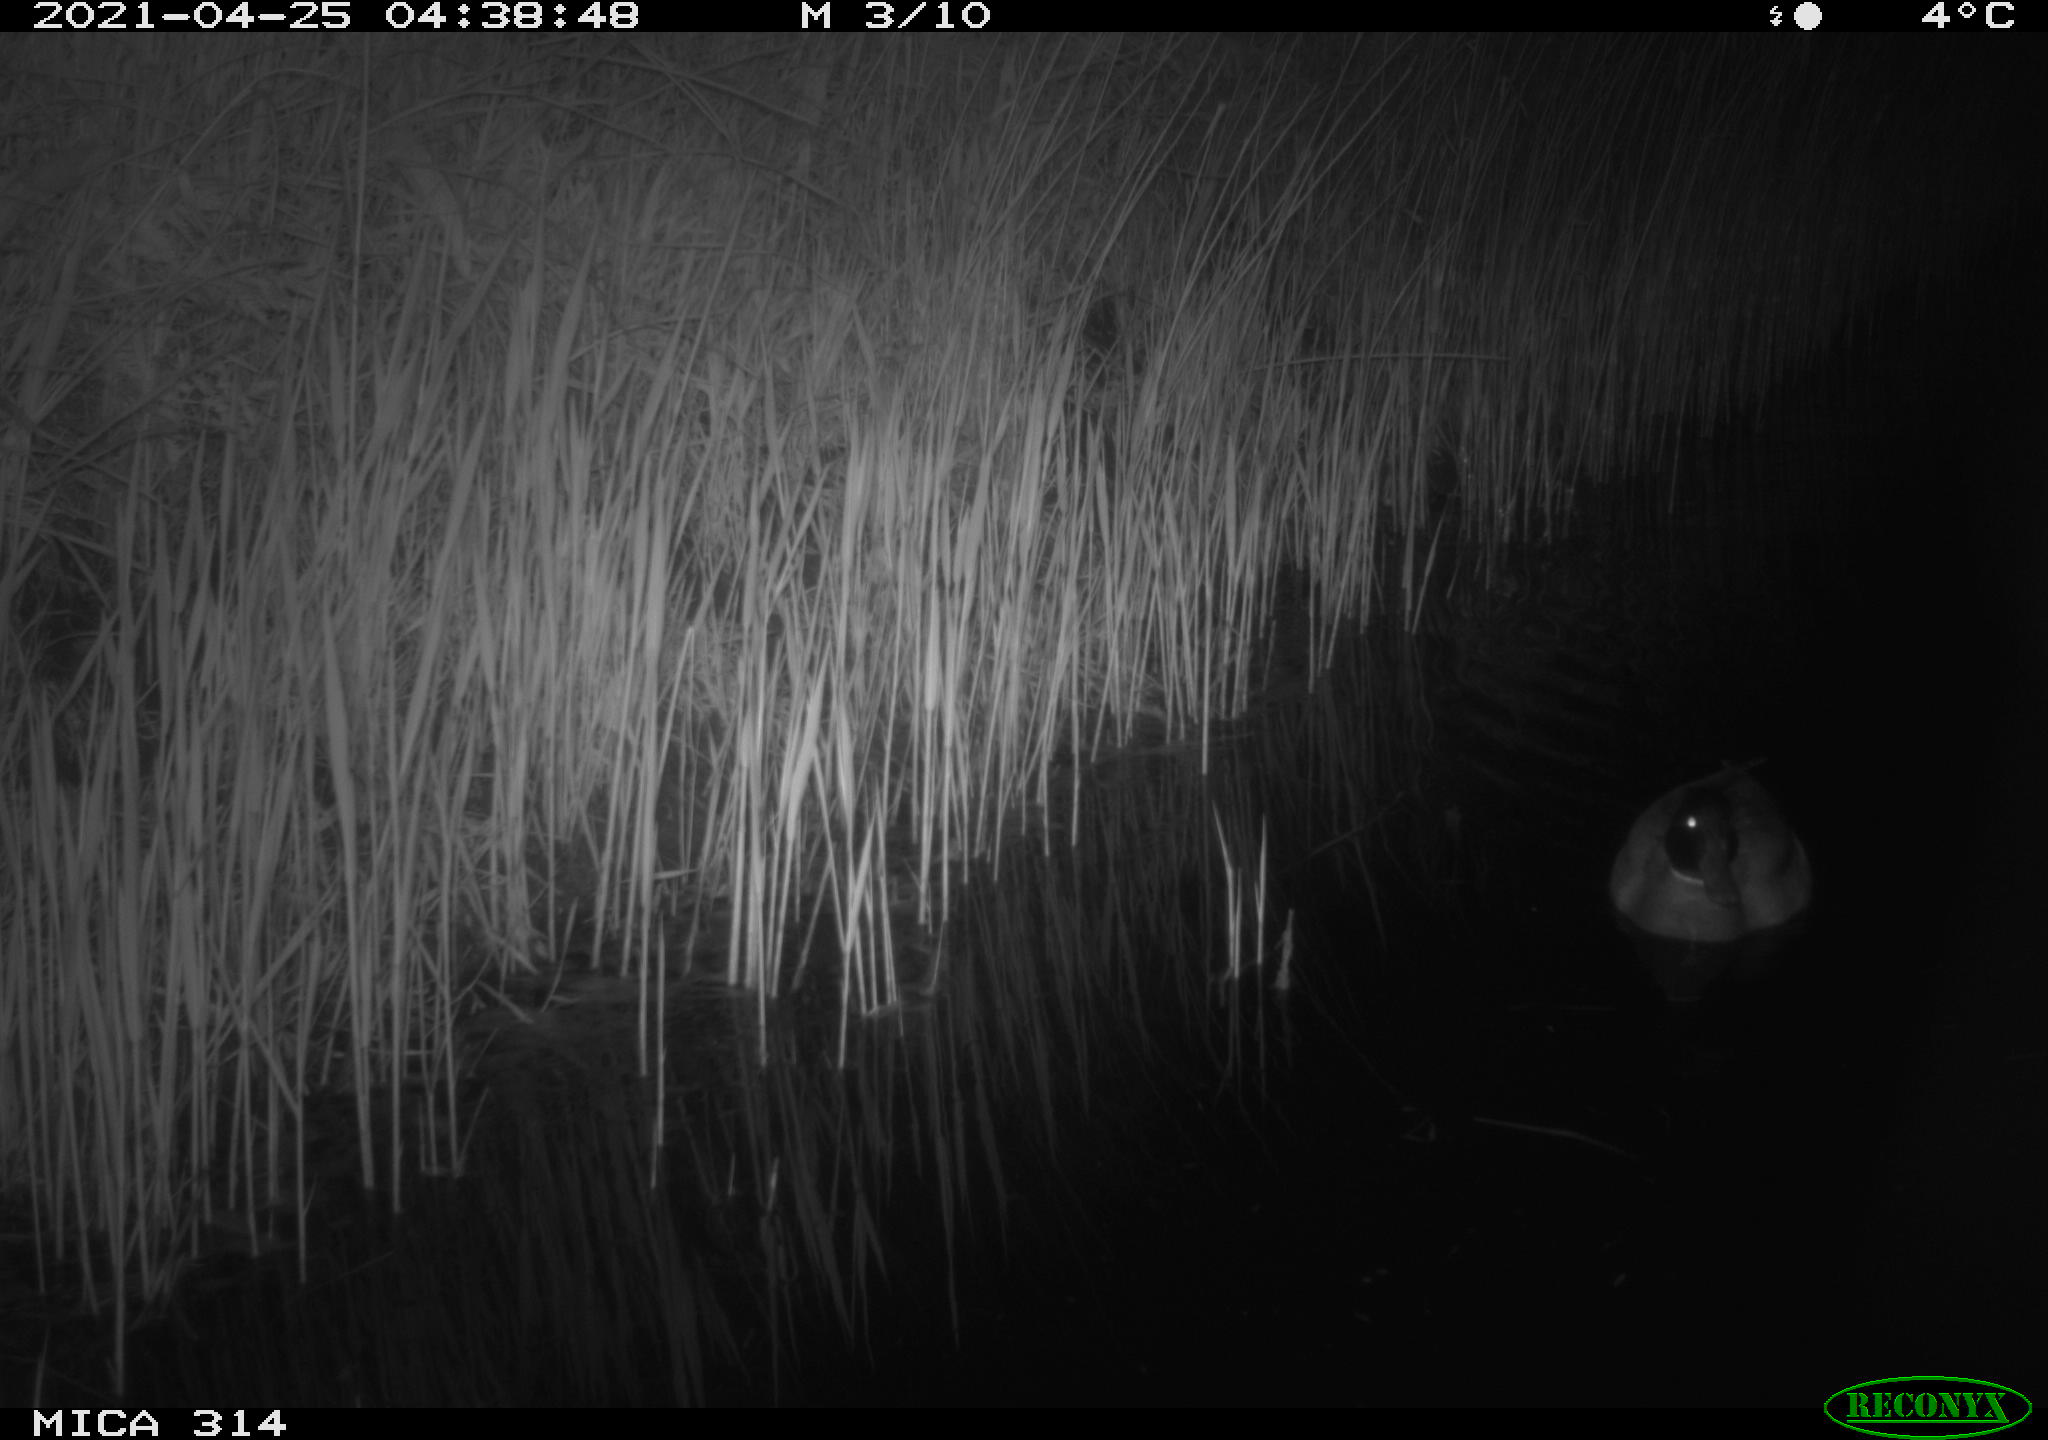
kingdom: Animalia
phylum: Chordata
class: Aves
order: Anseriformes
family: Anatidae
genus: Anas
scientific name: Anas platyrhynchos
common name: Mallard
